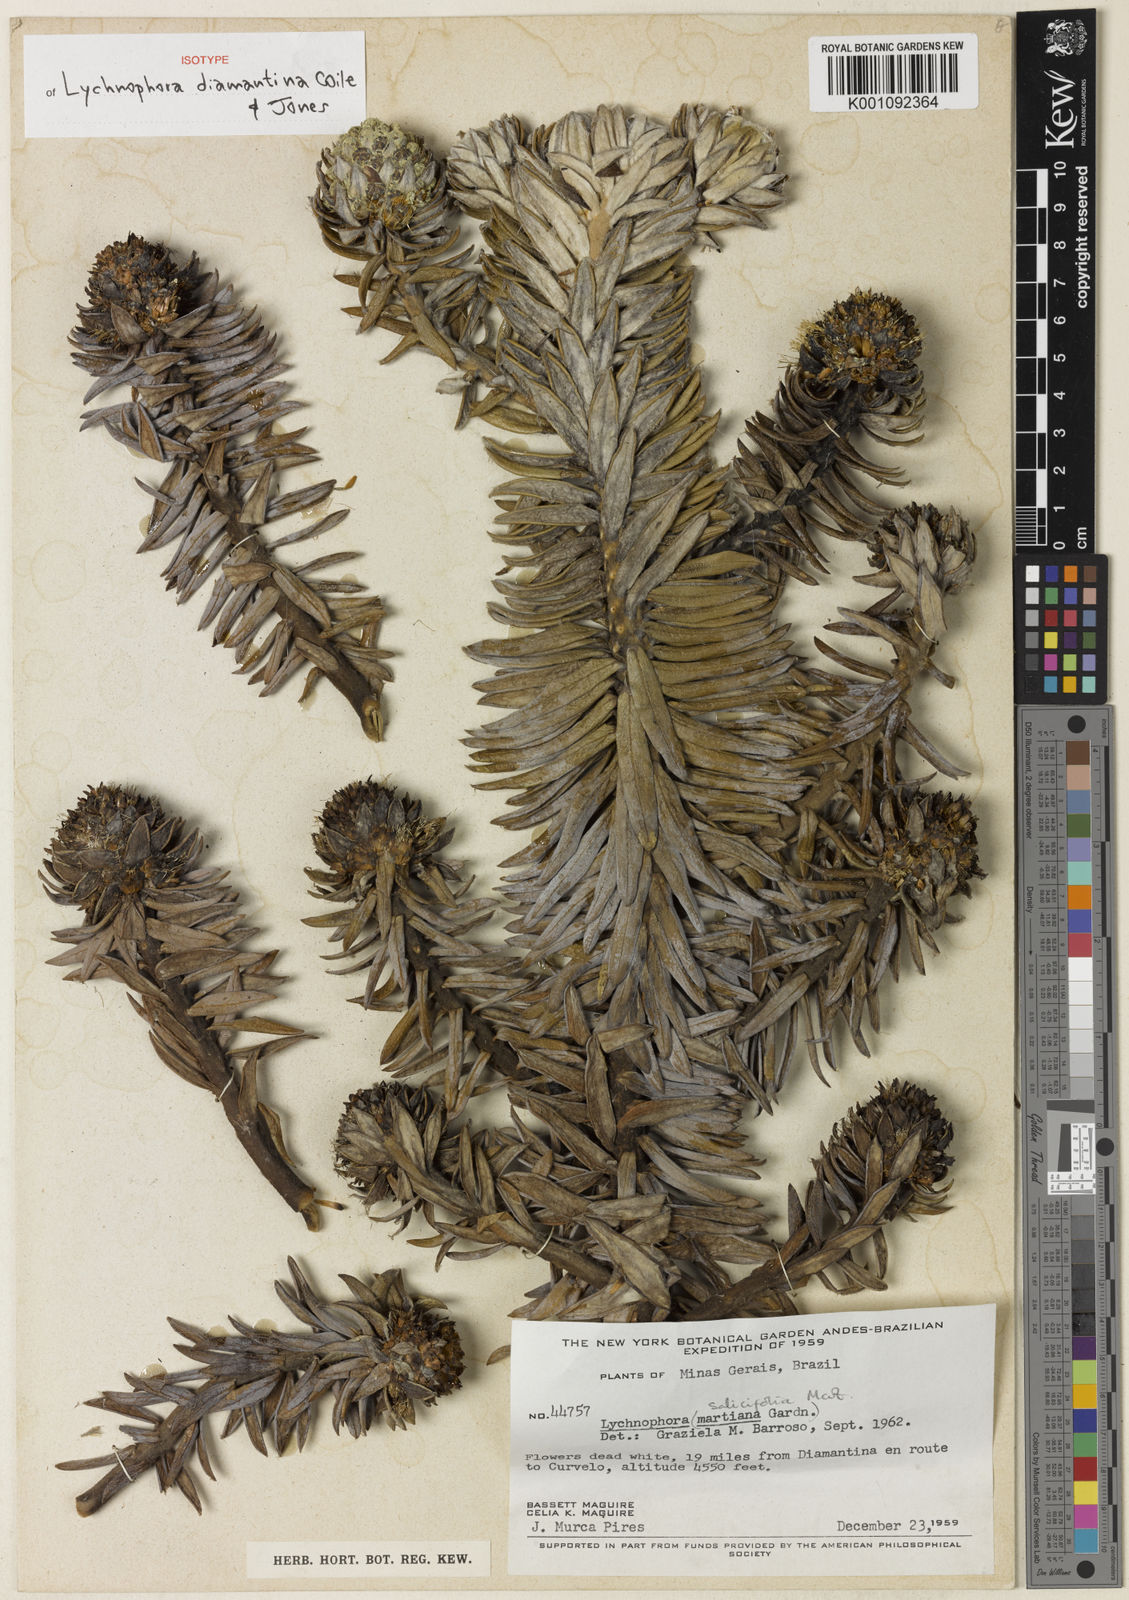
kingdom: Plantae
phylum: Tracheophyta
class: Magnoliopsida
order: Asterales
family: Asteraceae
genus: Lychnophora
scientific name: Lychnophora diamantinana
